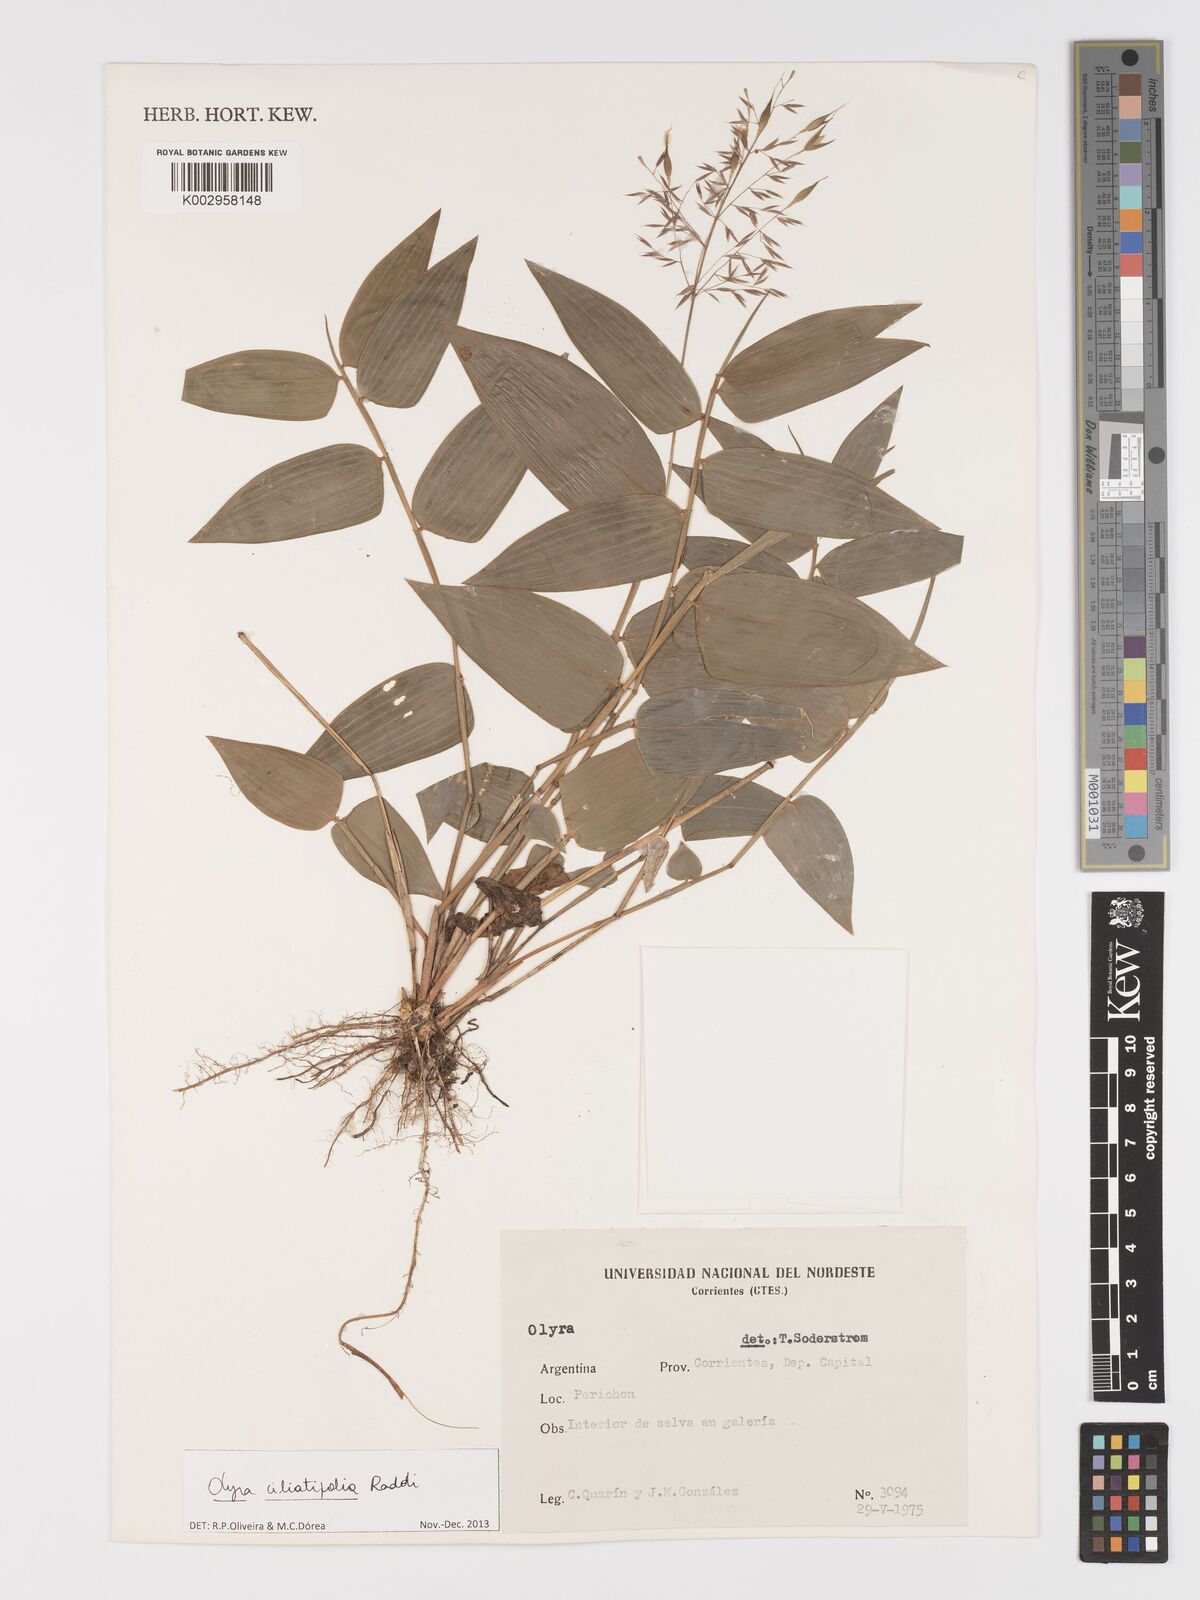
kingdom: Plantae
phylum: Tracheophyta
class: Liliopsida
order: Poales
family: Poaceae
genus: Olyra
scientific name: Olyra ciliatifolia
